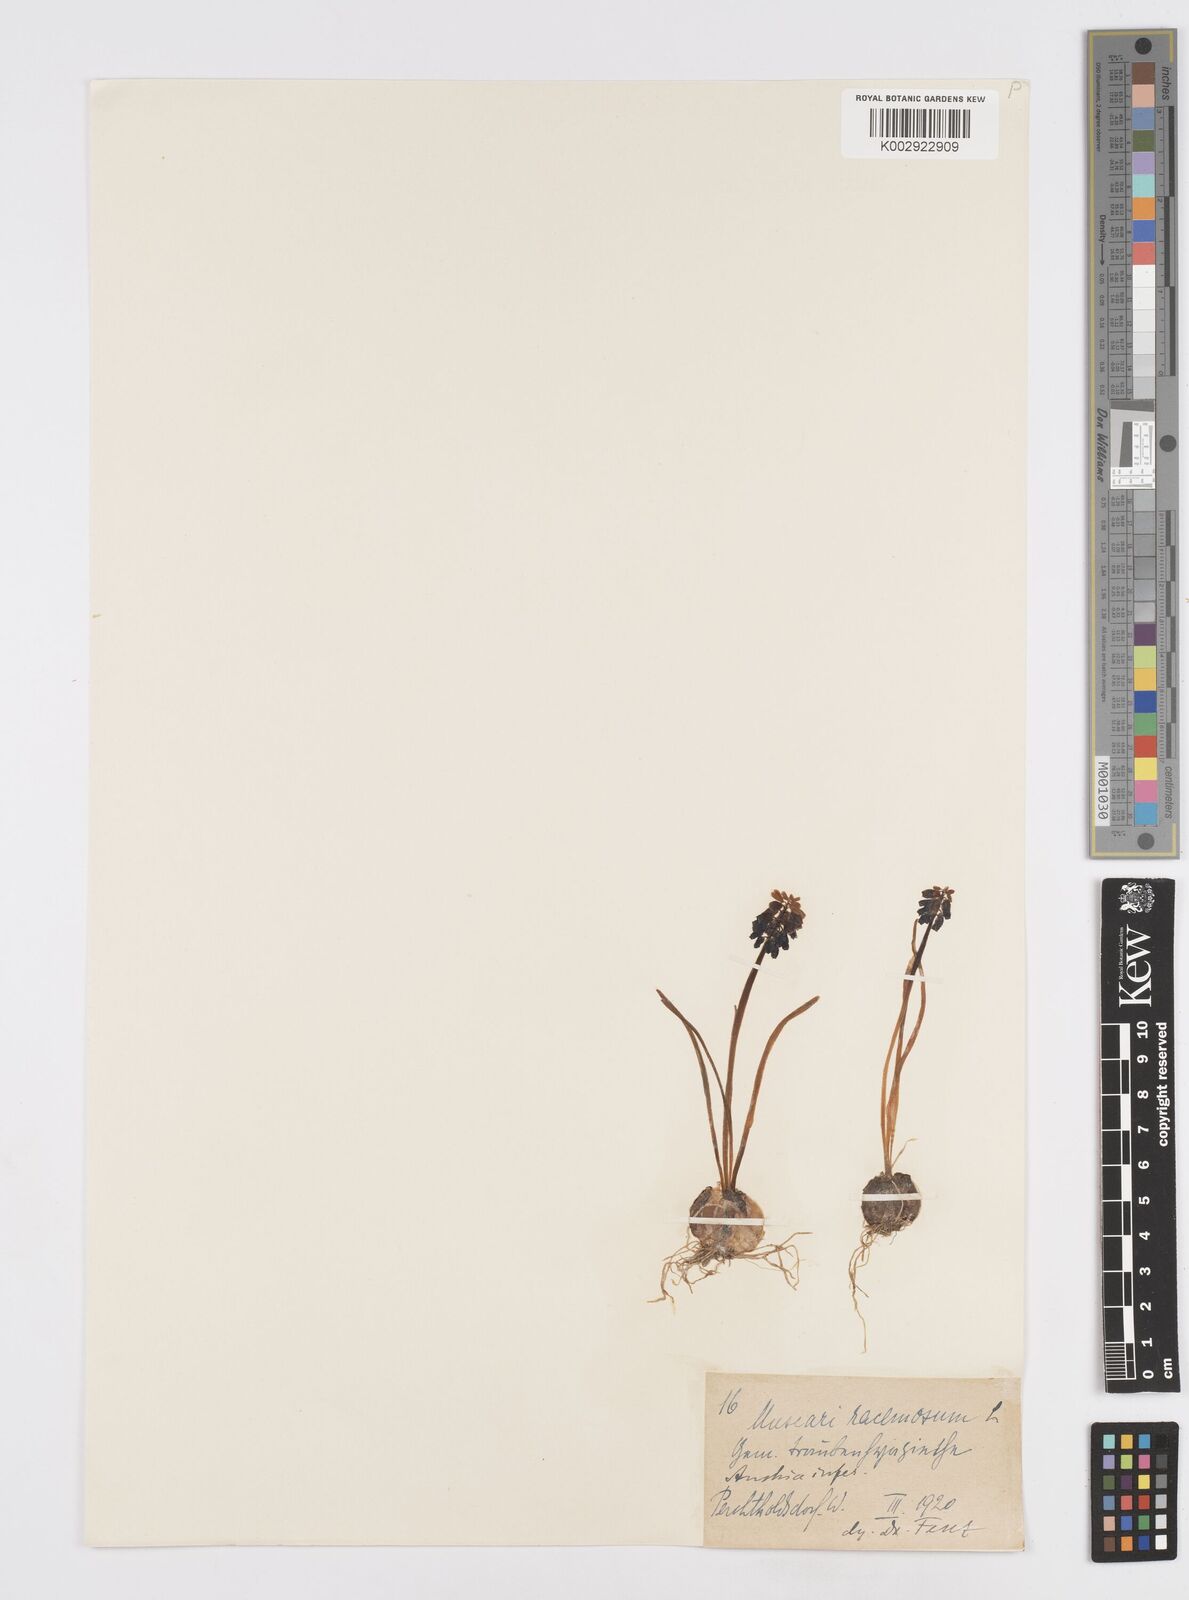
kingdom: Plantae
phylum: Tracheophyta
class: Liliopsida
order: Asparagales
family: Asparagaceae
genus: Muscarimia
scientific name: Muscarimia muscari
